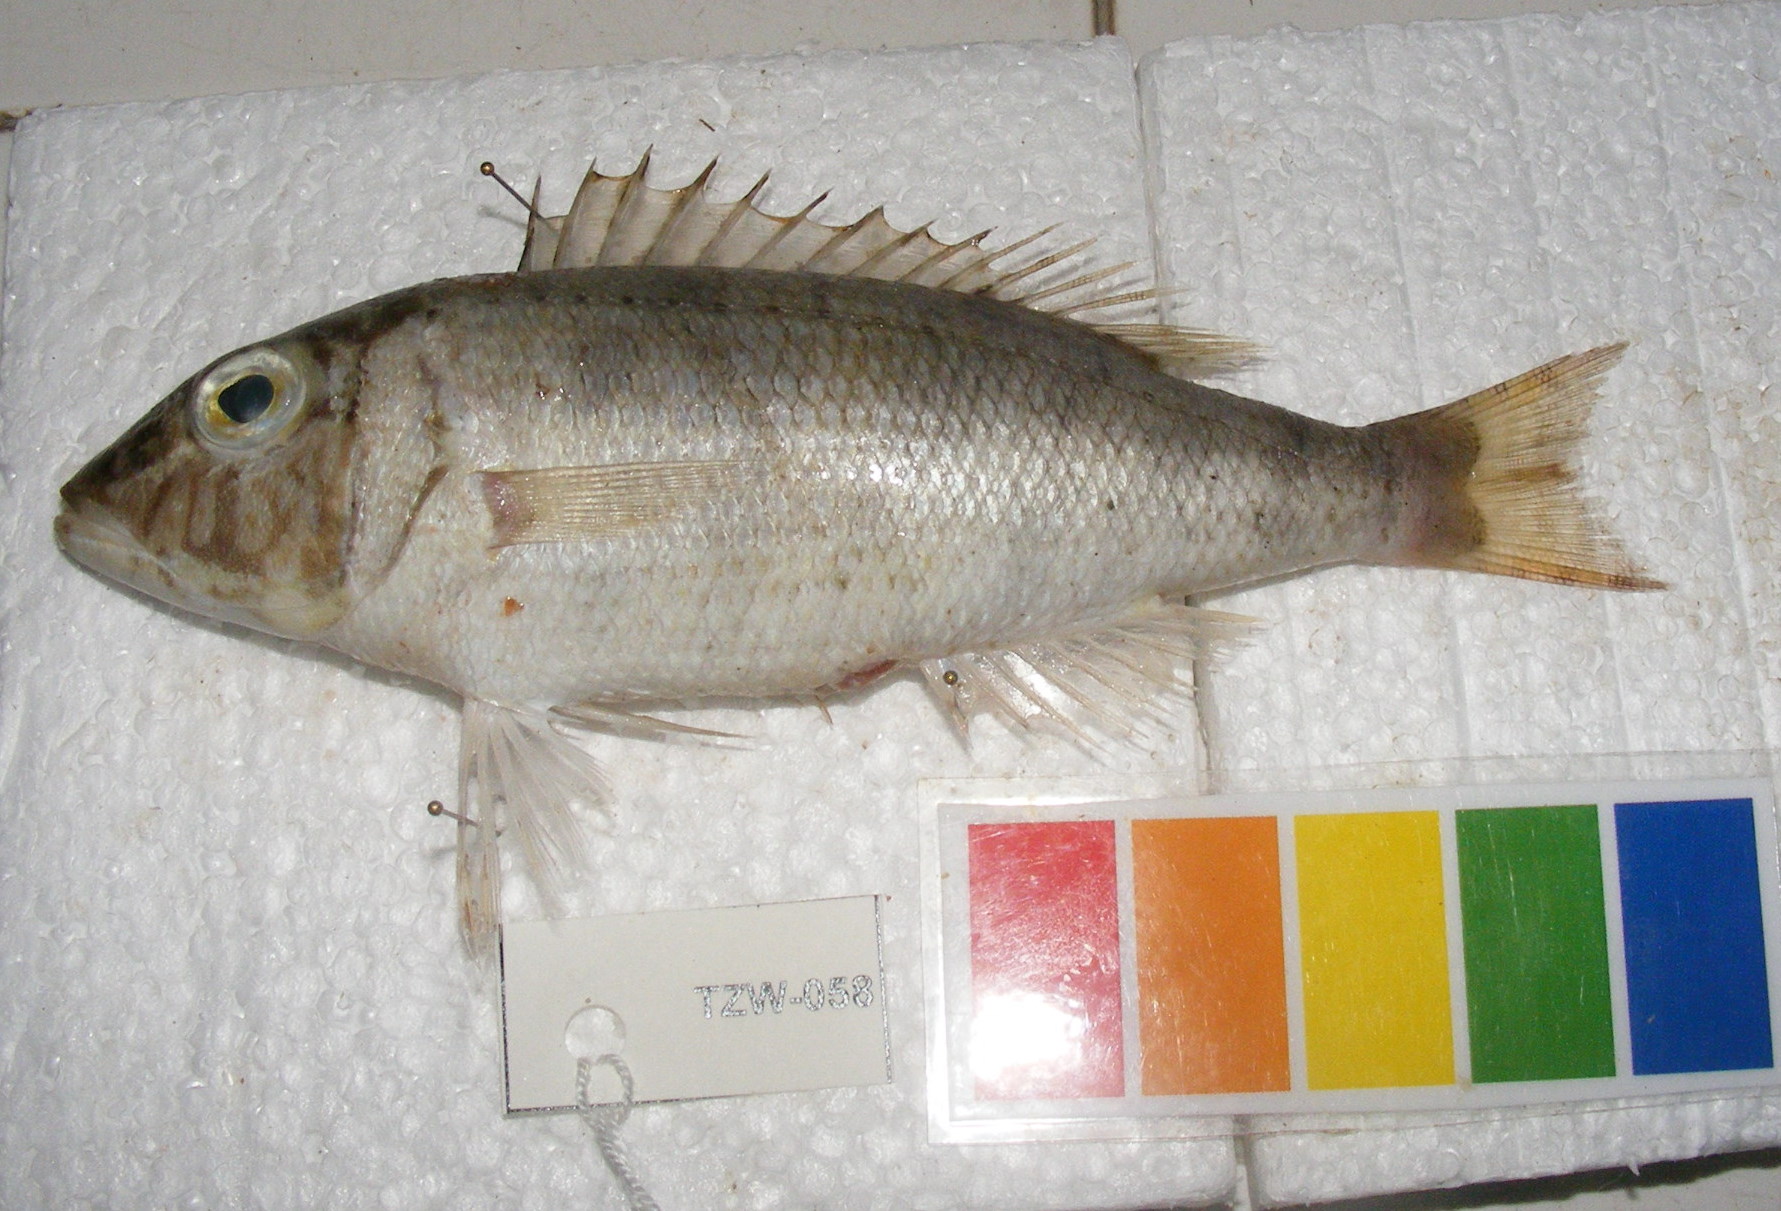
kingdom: Animalia
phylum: Chordata
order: Perciformes
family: Lethrinidae
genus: Lethrinus
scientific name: Lethrinus
